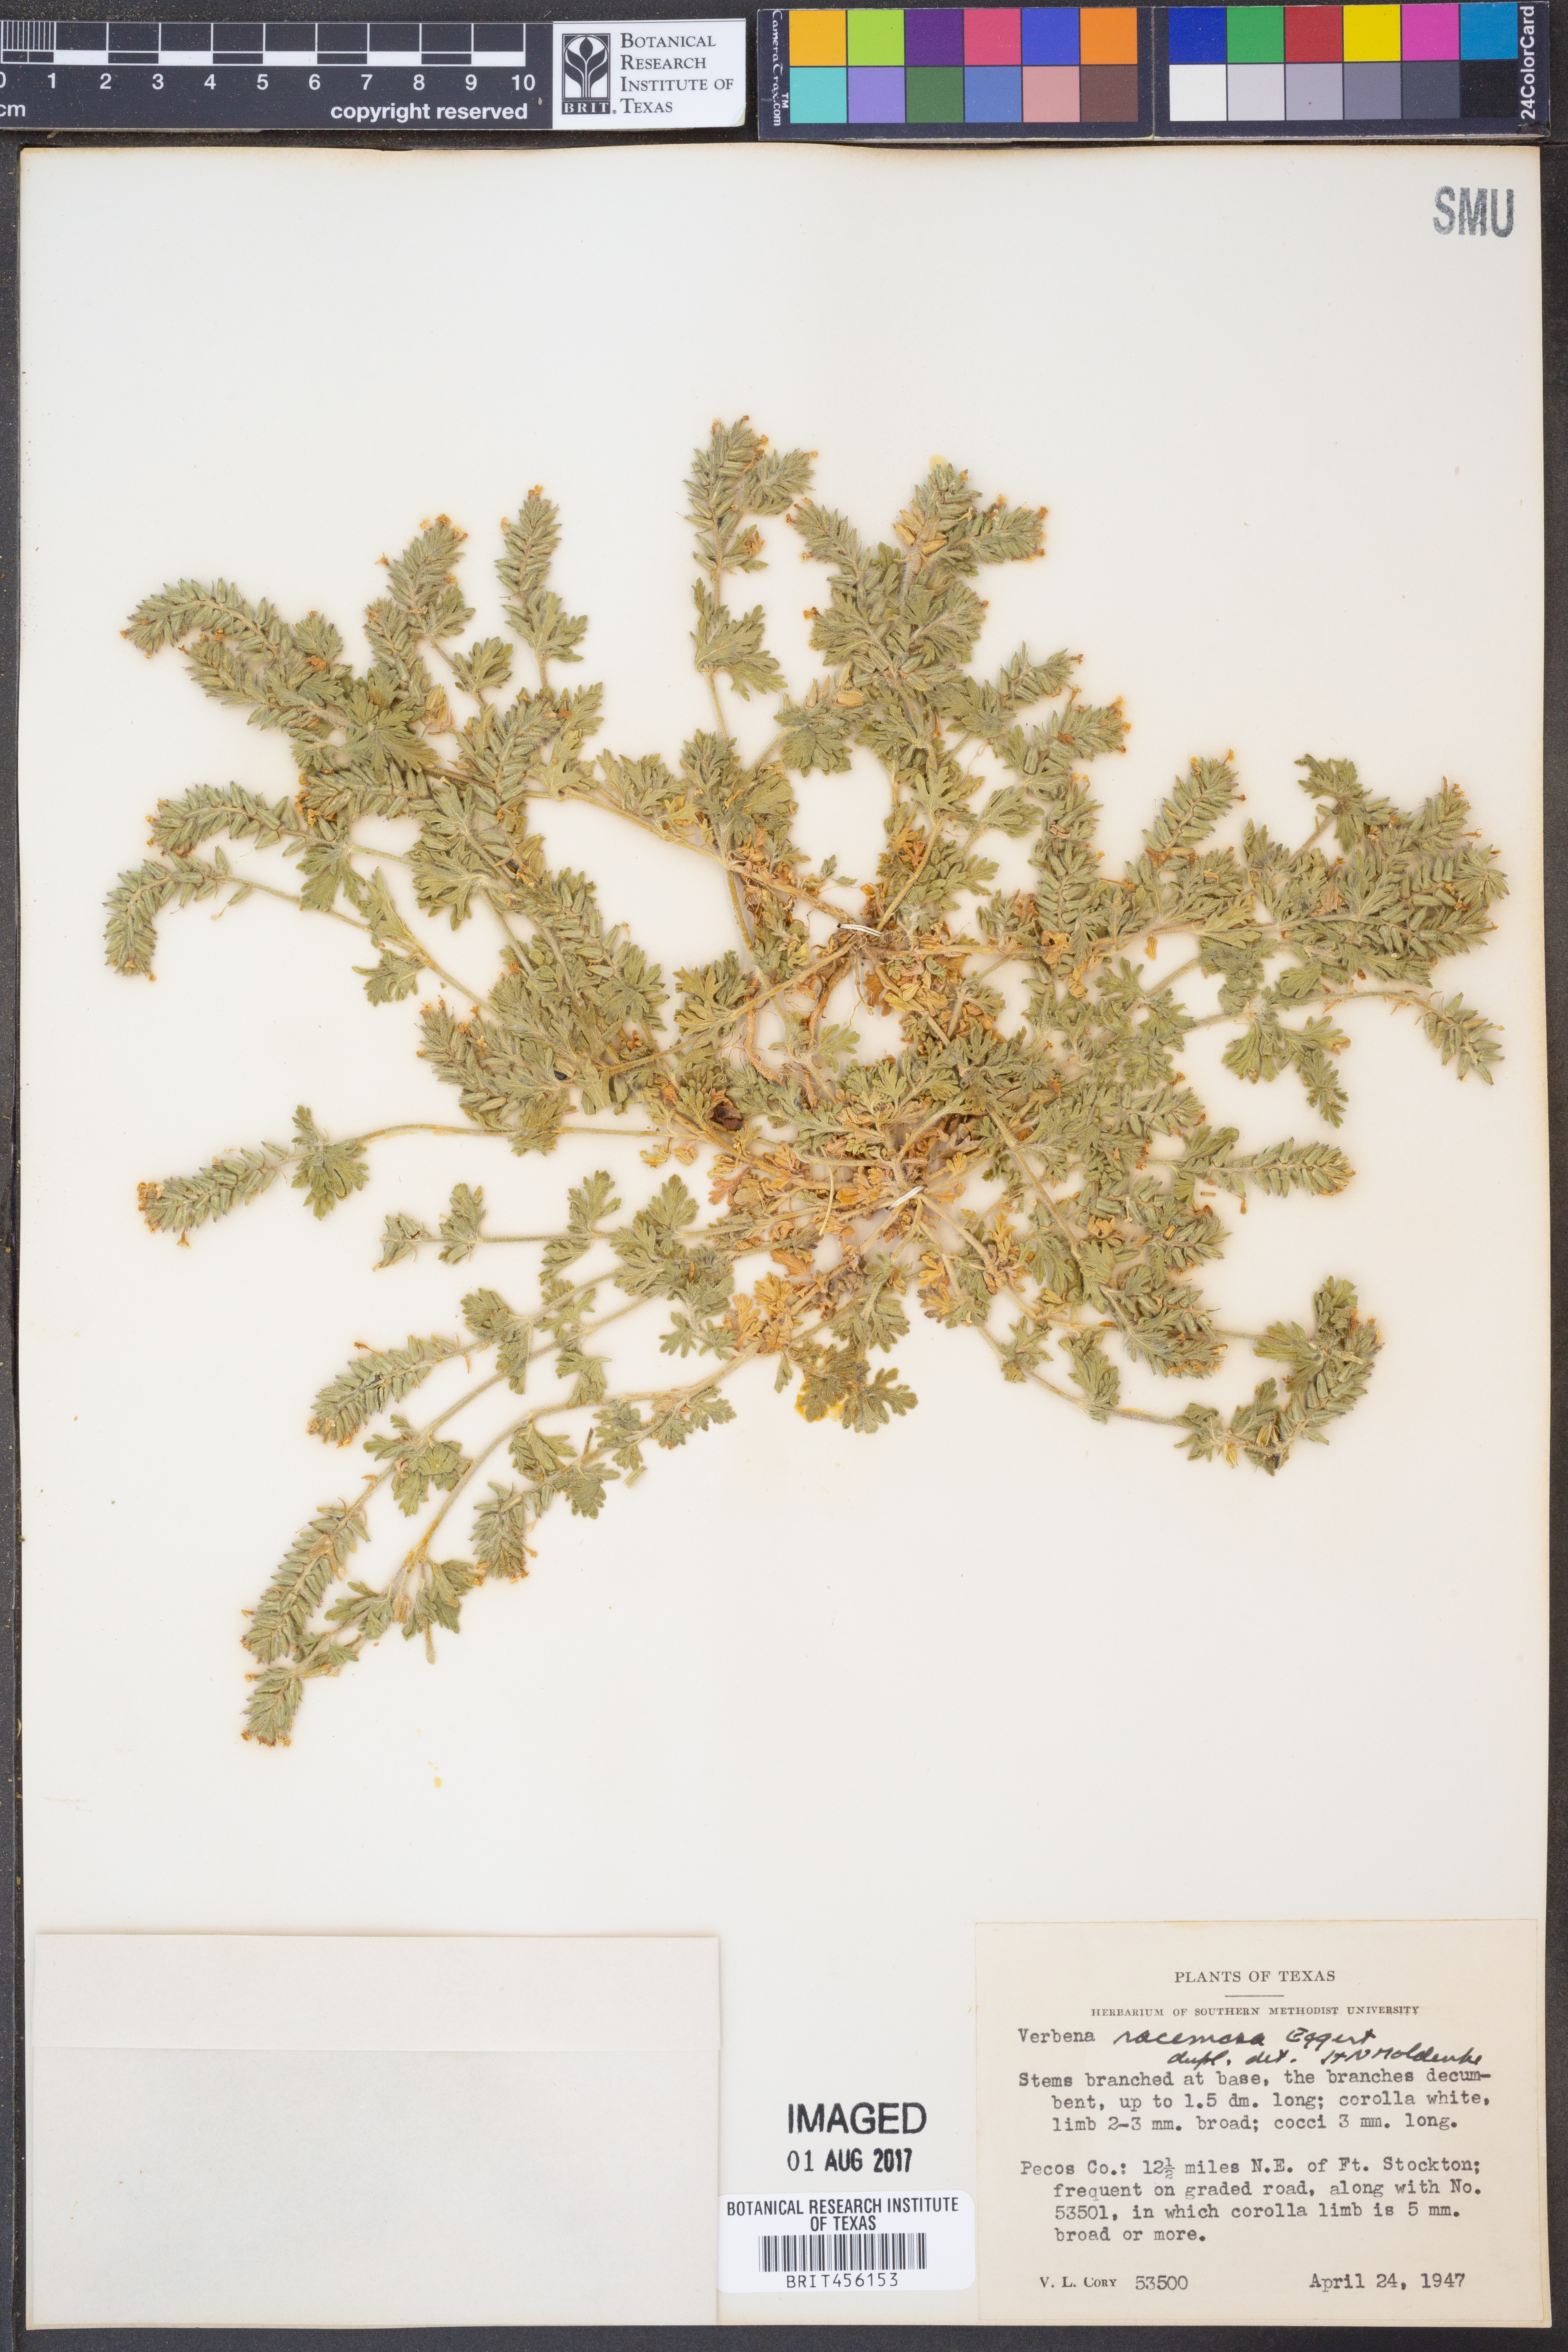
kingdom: Plantae
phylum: Tracheophyta
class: Magnoliopsida
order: Lamiales
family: Verbenaceae
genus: Verbena
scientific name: Verbena racemosa
